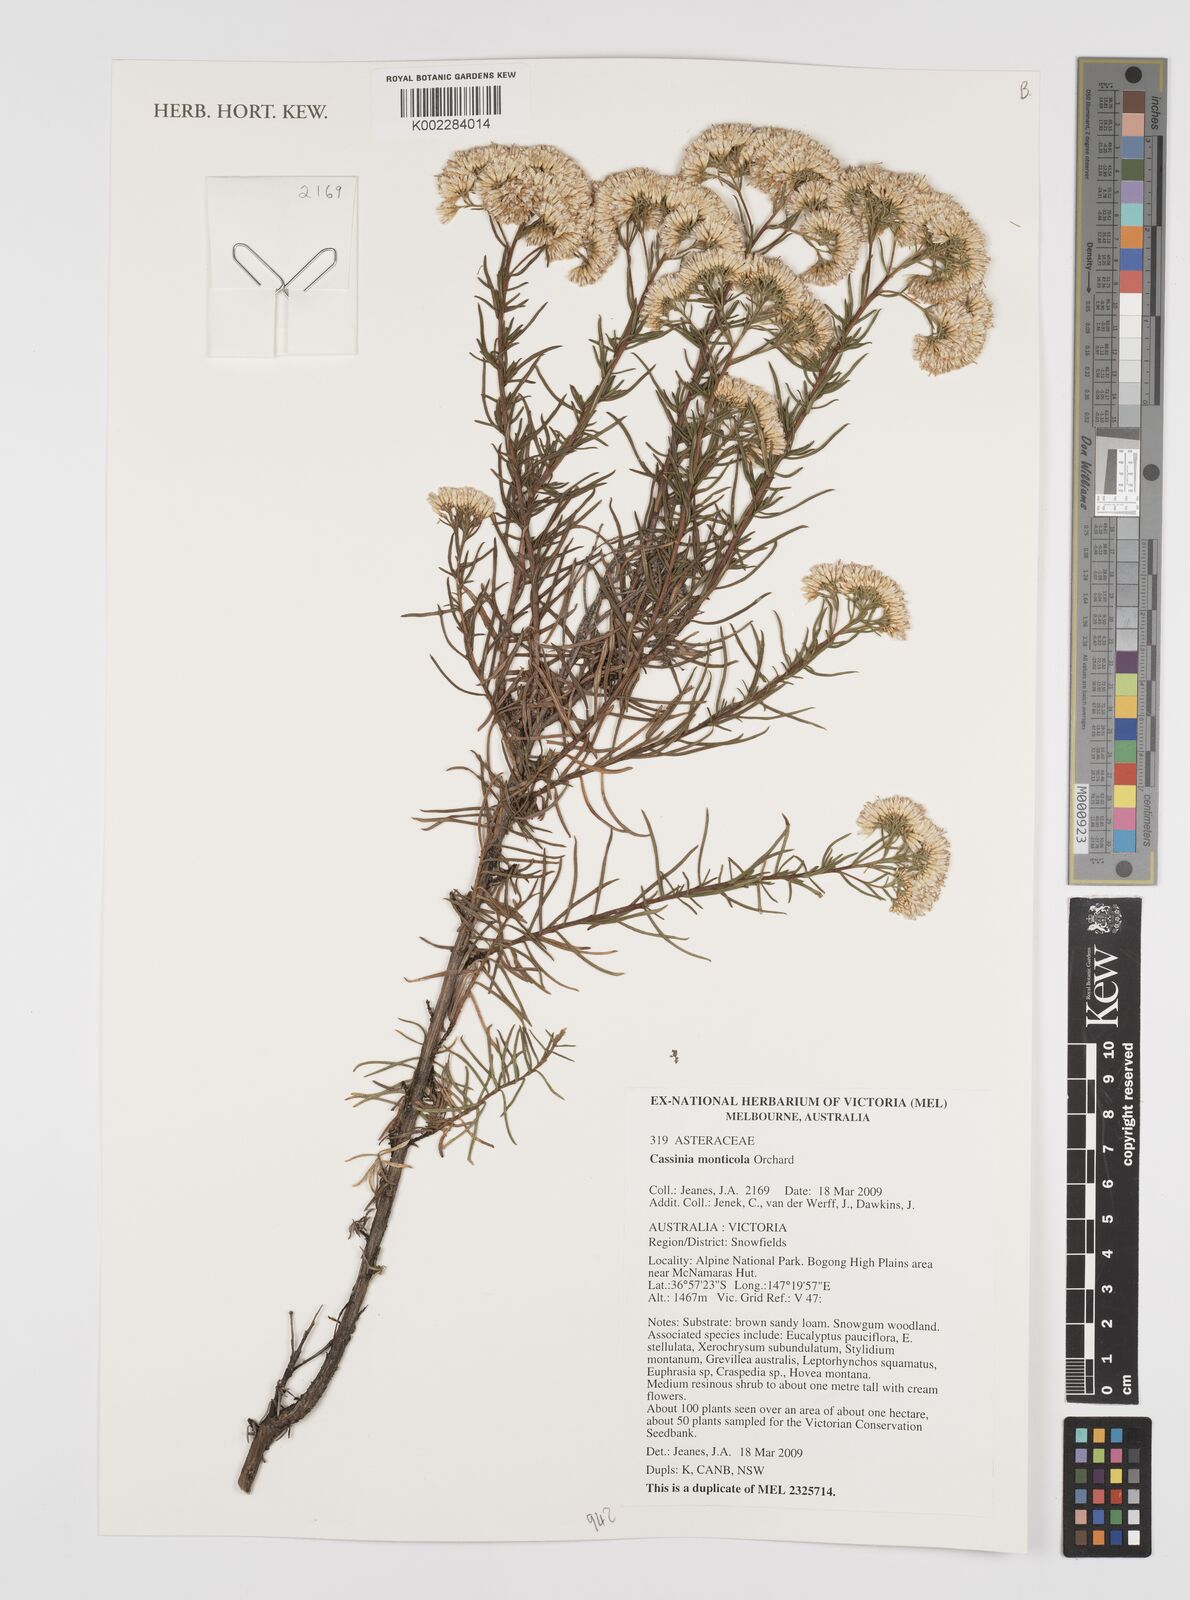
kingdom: Plantae
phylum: Tracheophyta
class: Magnoliopsida
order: Asterales
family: Asteraceae
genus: Cassinia
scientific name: Cassinia monticola
